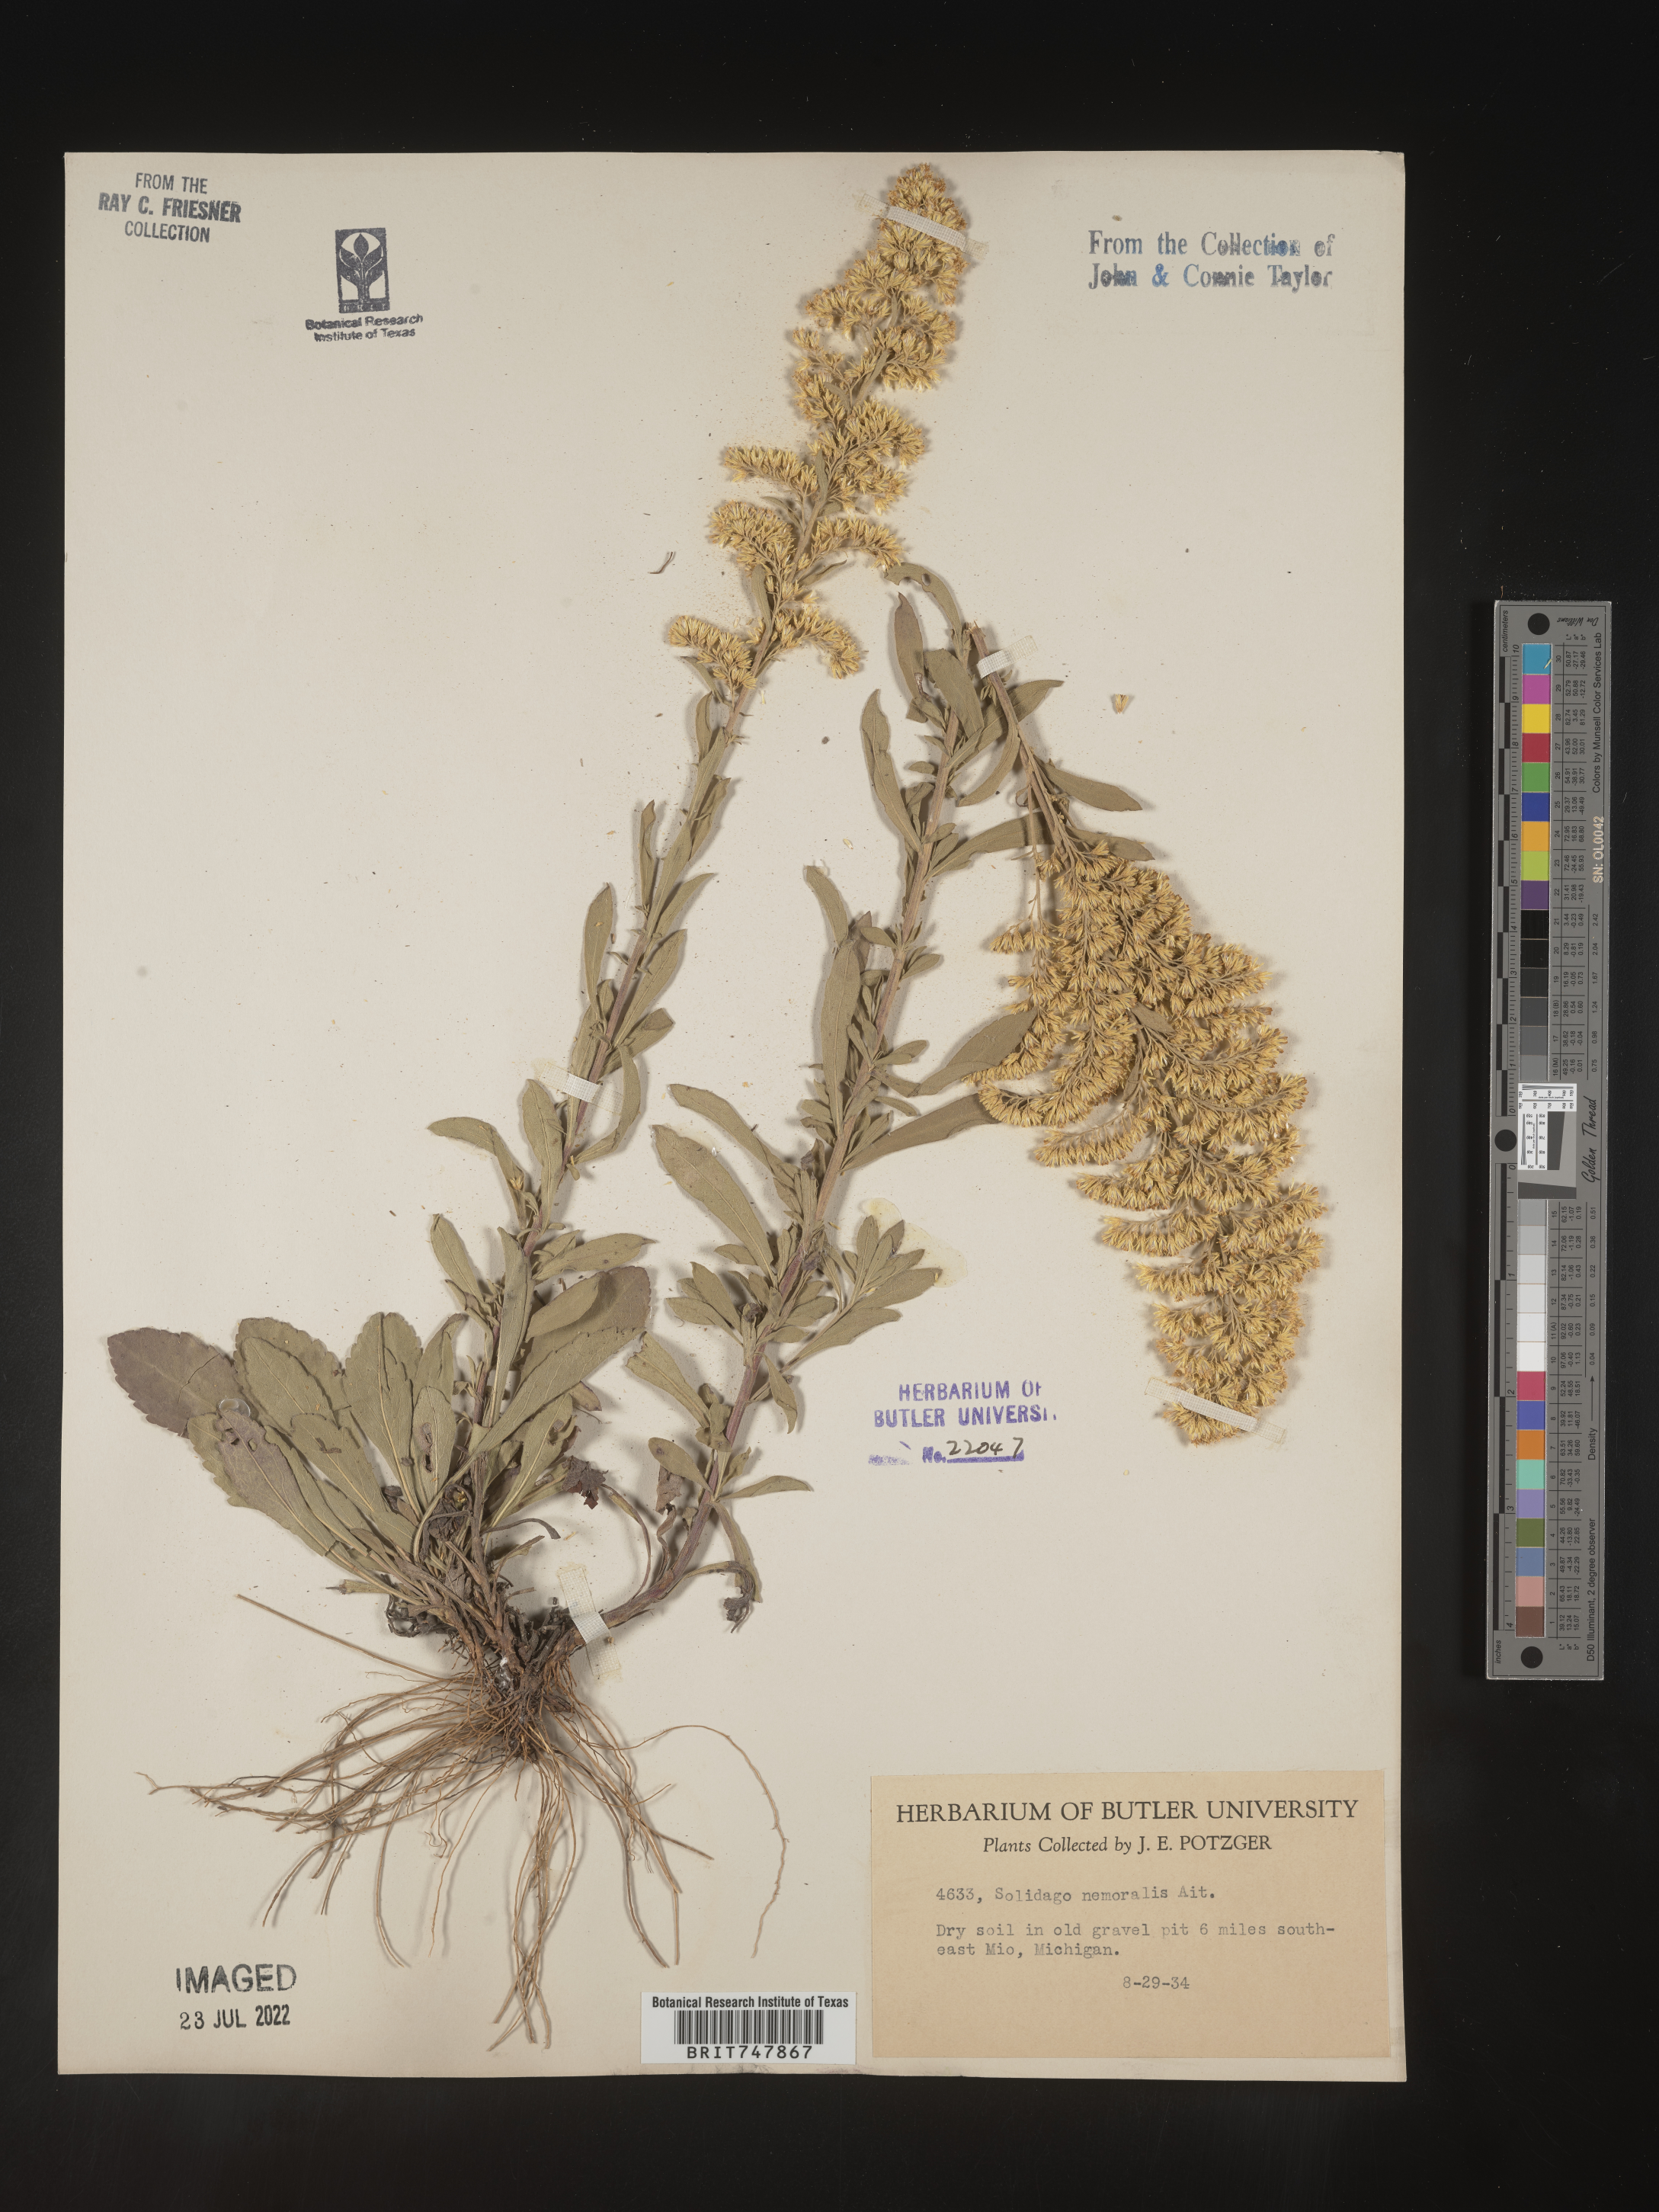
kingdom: Plantae
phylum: Tracheophyta
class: Magnoliopsida
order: Asterales
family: Asteraceae
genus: Solidago
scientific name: Solidago nemoralis
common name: Grey goldenrod
